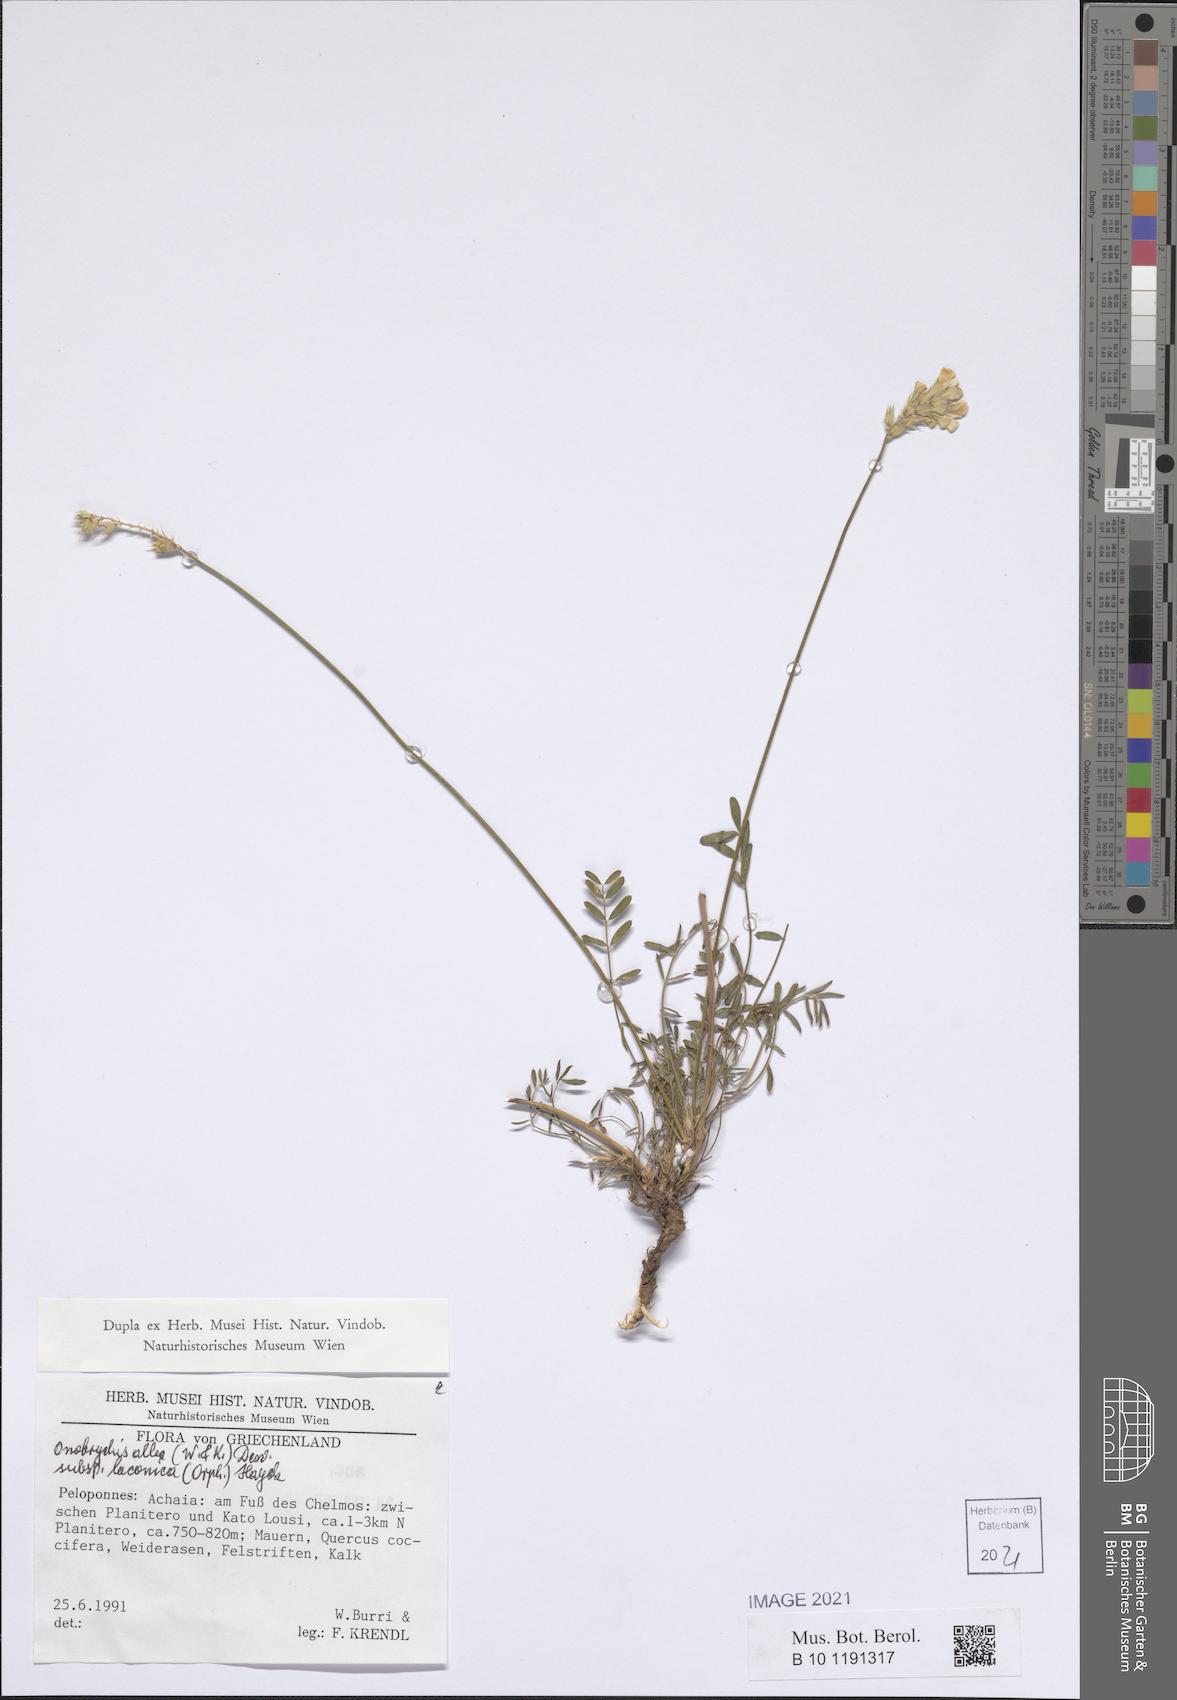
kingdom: Plantae
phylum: Tracheophyta
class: Magnoliopsida
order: Fabales
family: Fabaceae
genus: Onobrychis
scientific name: Onobrychis alba
